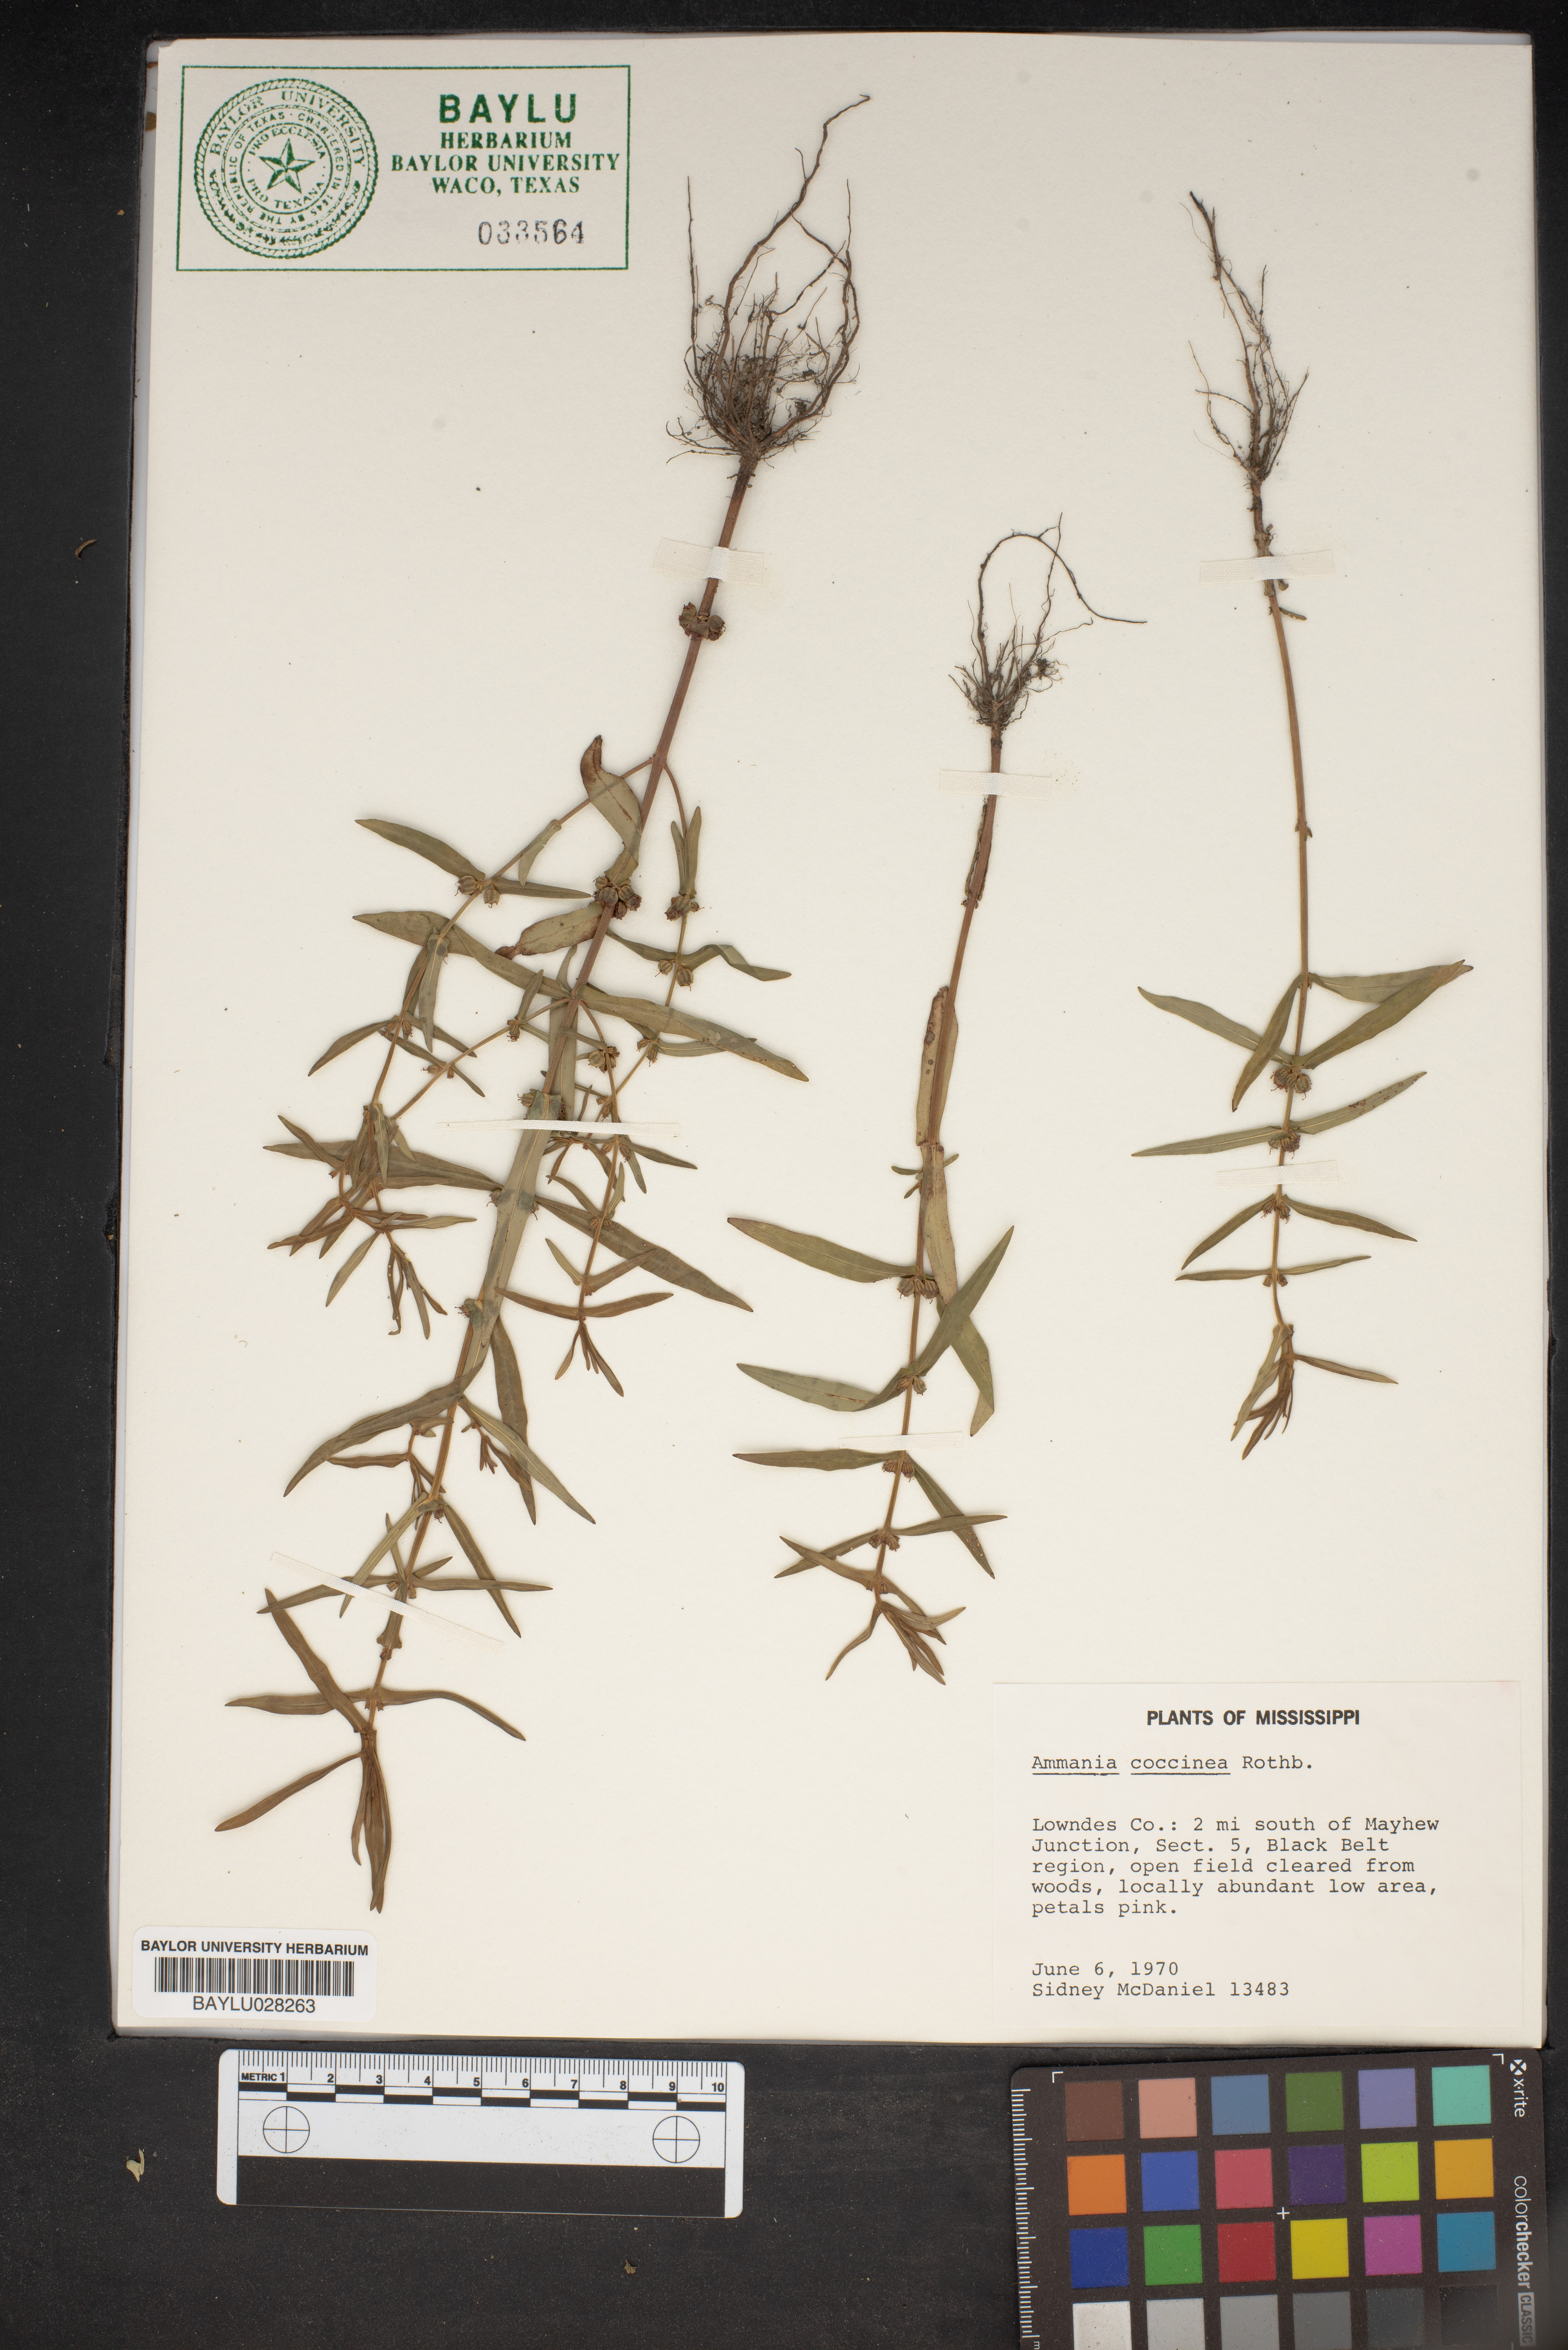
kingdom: Plantae
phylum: Tracheophyta
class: Magnoliopsida
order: Myrtales
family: Lythraceae
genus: Ammannia
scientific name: Ammannia coccinea
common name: Valley redstem
